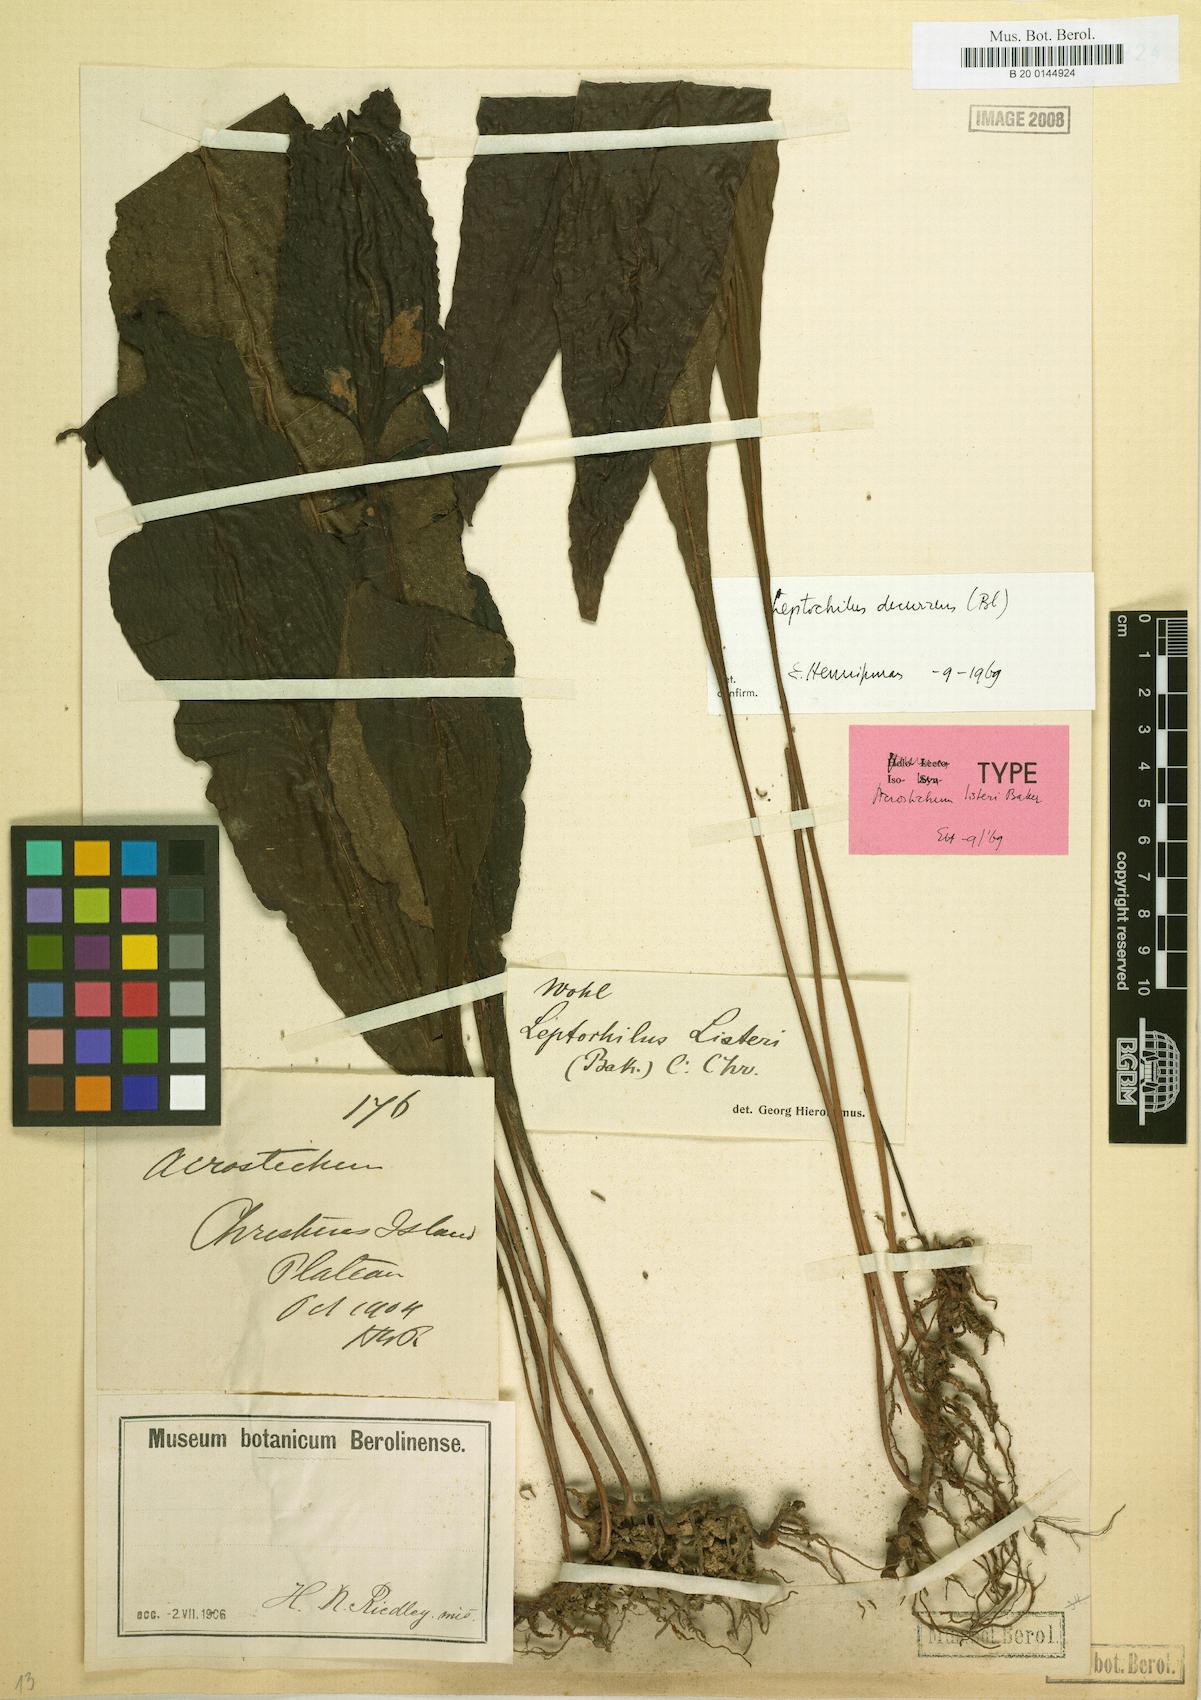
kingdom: Plantae
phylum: Tracheophyta
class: Polypodiopsida
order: Polypodiales
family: Polypodiaceae
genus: Leptochilus
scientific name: Leptochilus decurrens
